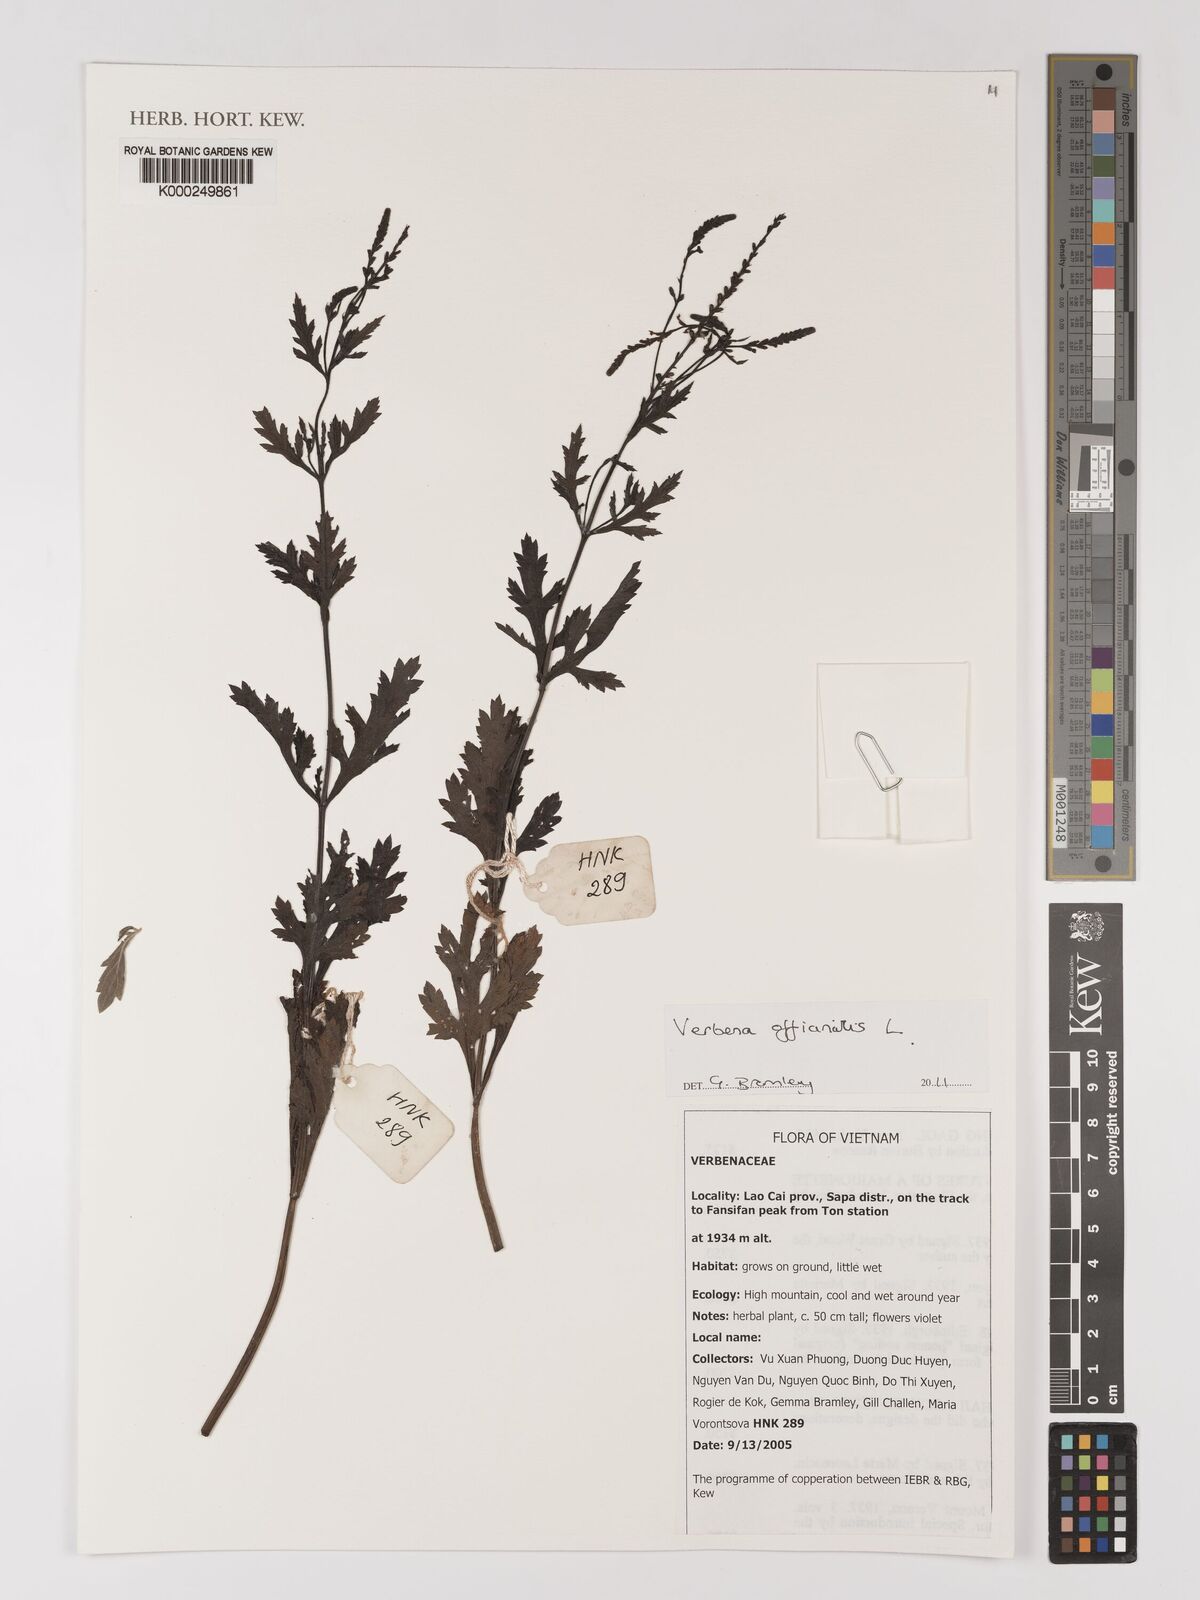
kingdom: Plantae
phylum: Tracheophyta
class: Magnoliopsida
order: Lamiales
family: Verbenaceae
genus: Verbena
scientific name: Verbena officinalis
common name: Vervain
